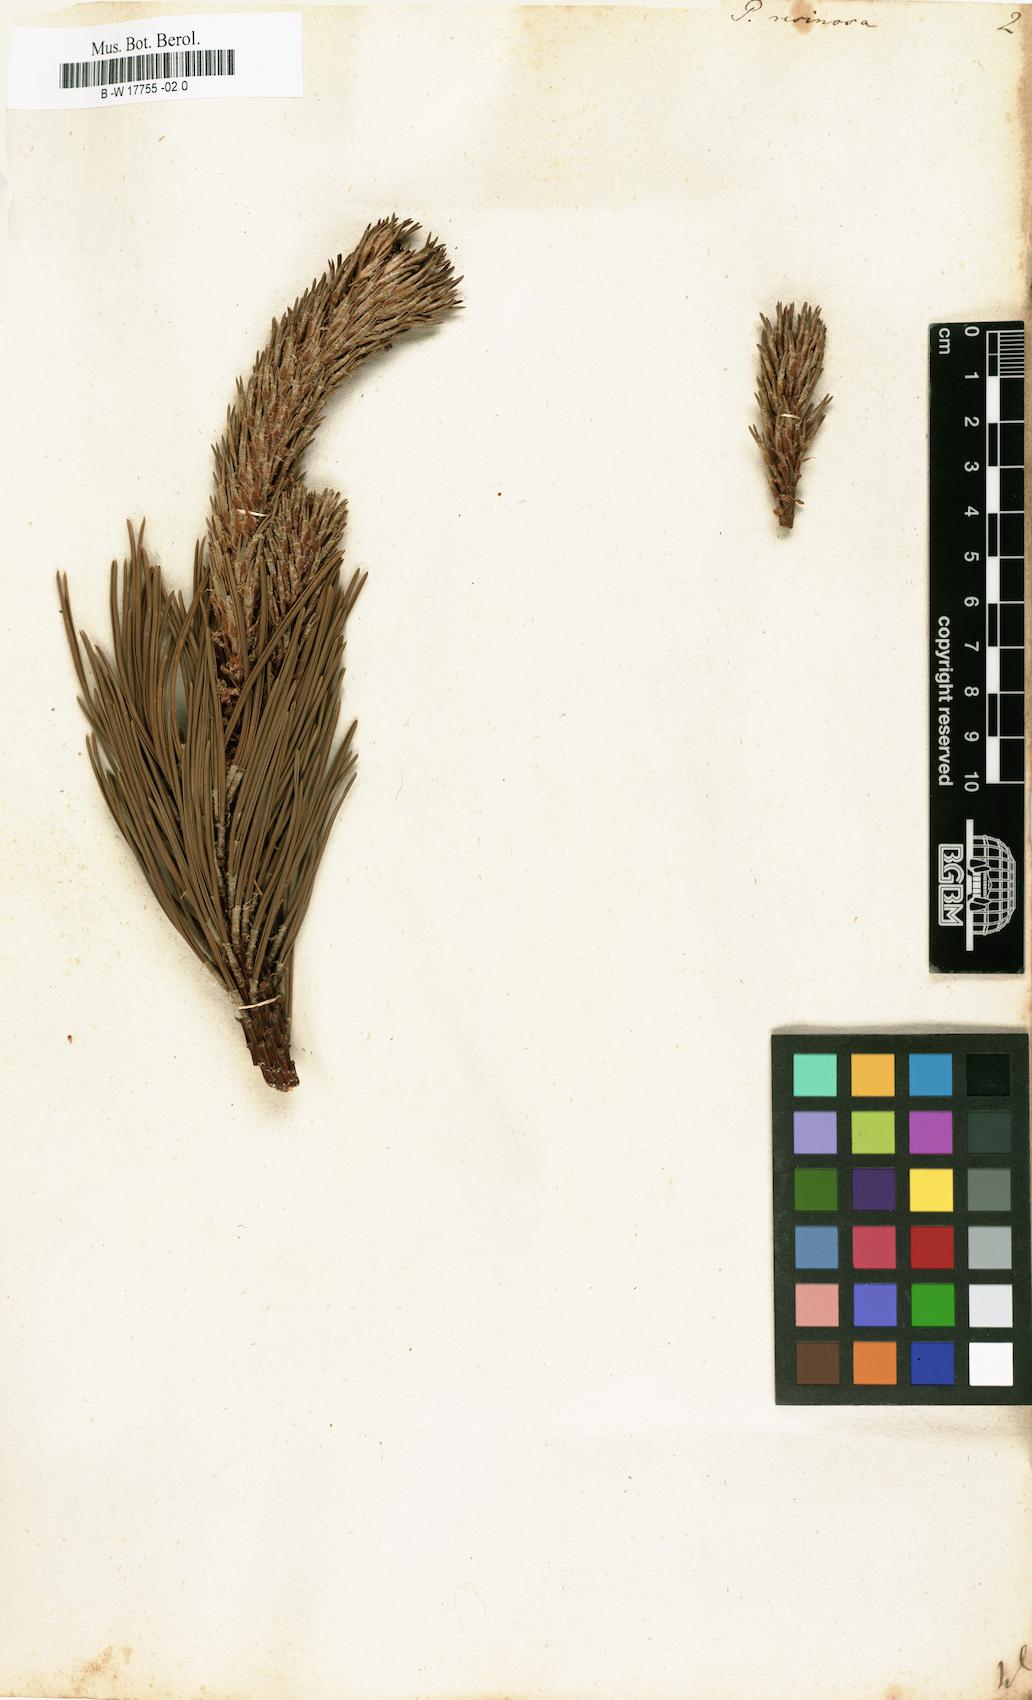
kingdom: Plantae
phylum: Tracheophyta
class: Pinopsida
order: Pinales
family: Pinaceae
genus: Pinus
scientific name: Pinus resinosa
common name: Norway pine
